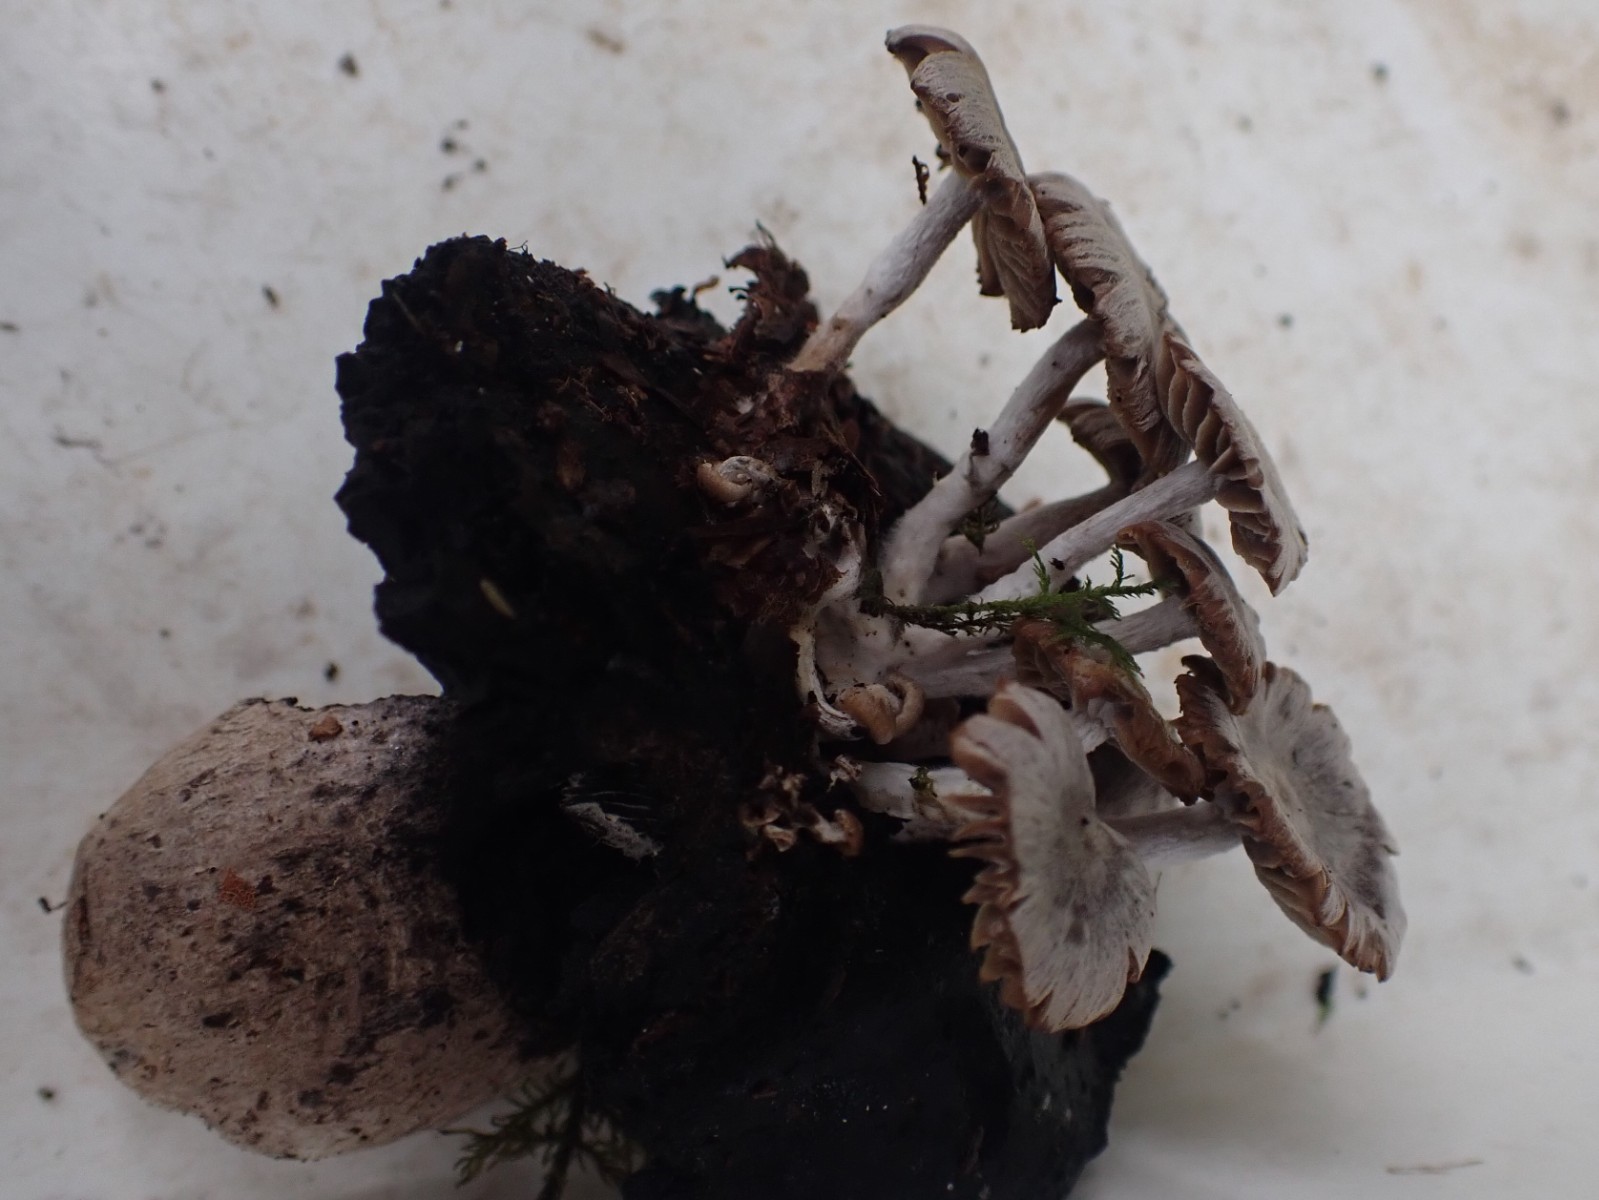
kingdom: Fungi
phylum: Basidiomycota
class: Agaricomycetes
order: Agaricales
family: Lyophyllaceae
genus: Asterophora
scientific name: Asterophora parasitica
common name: grå snyltehat
